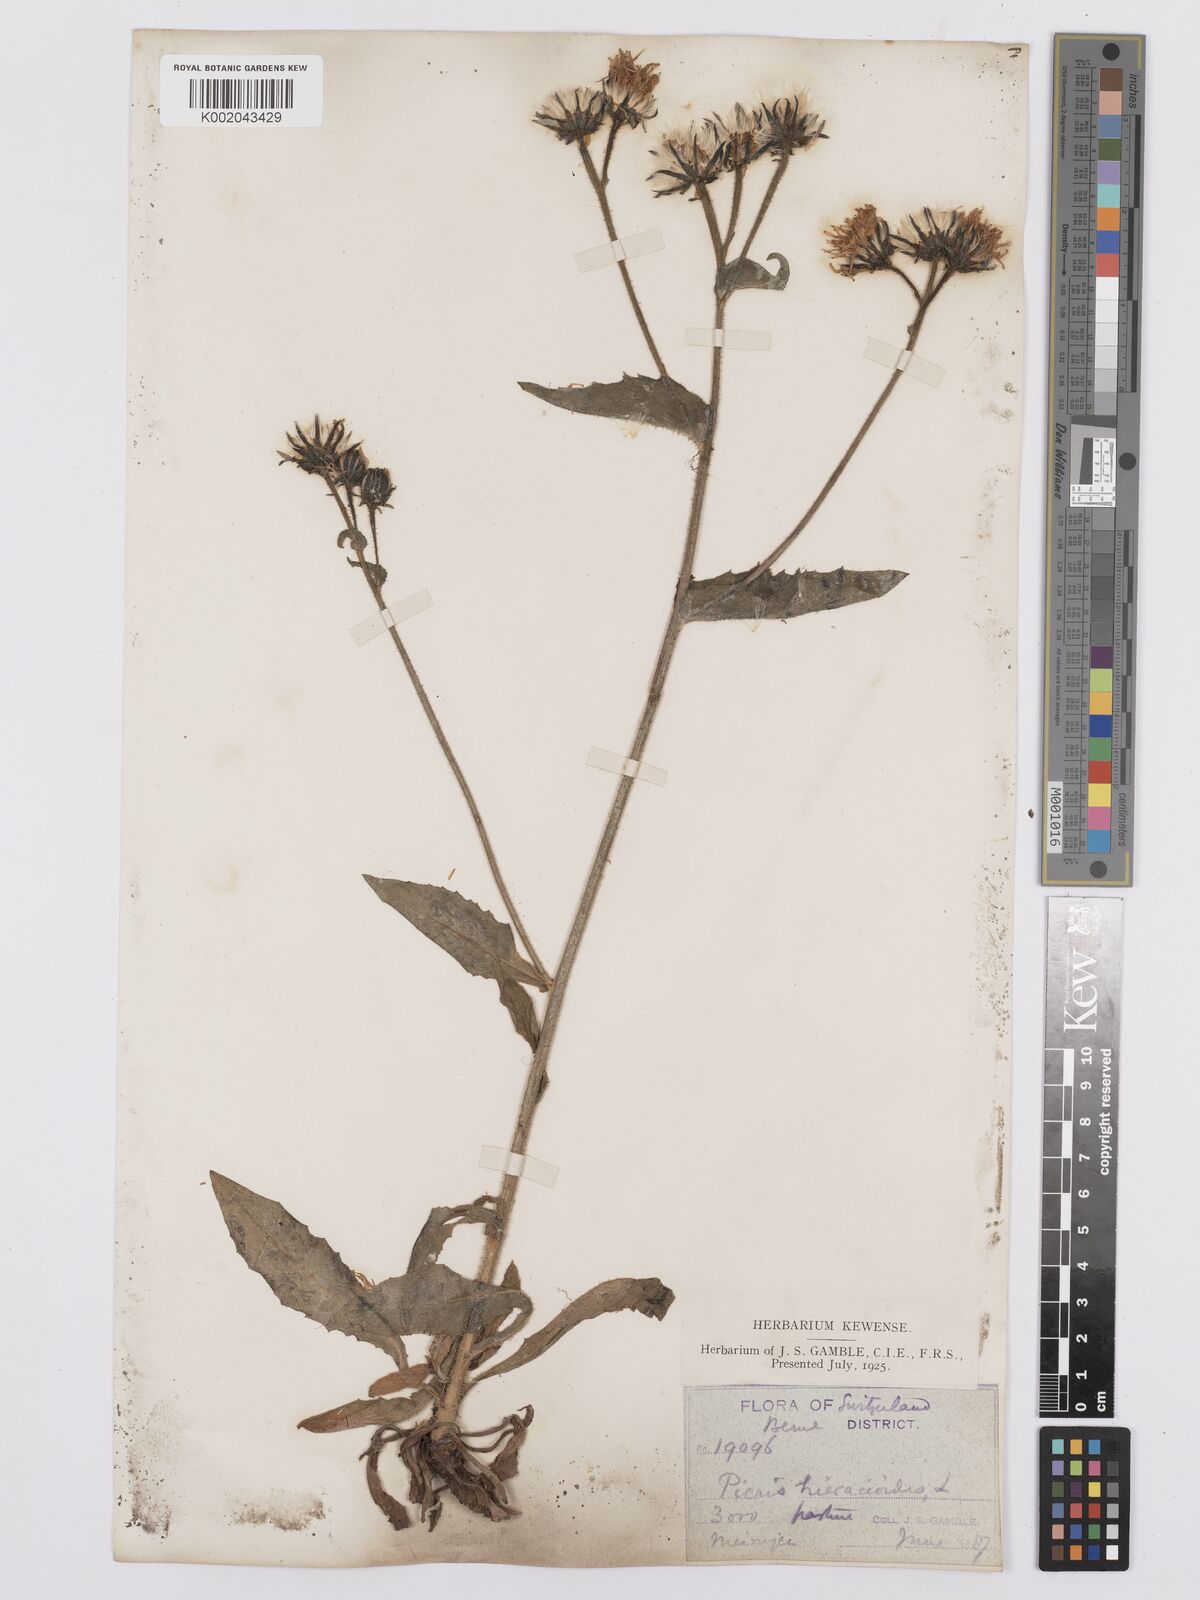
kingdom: Plantae
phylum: Tracheophyta
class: Magnoliopsida
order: Asterales
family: Asteraceae
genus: Picris
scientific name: Picris hieracioides
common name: Hawkweed oxtongue
